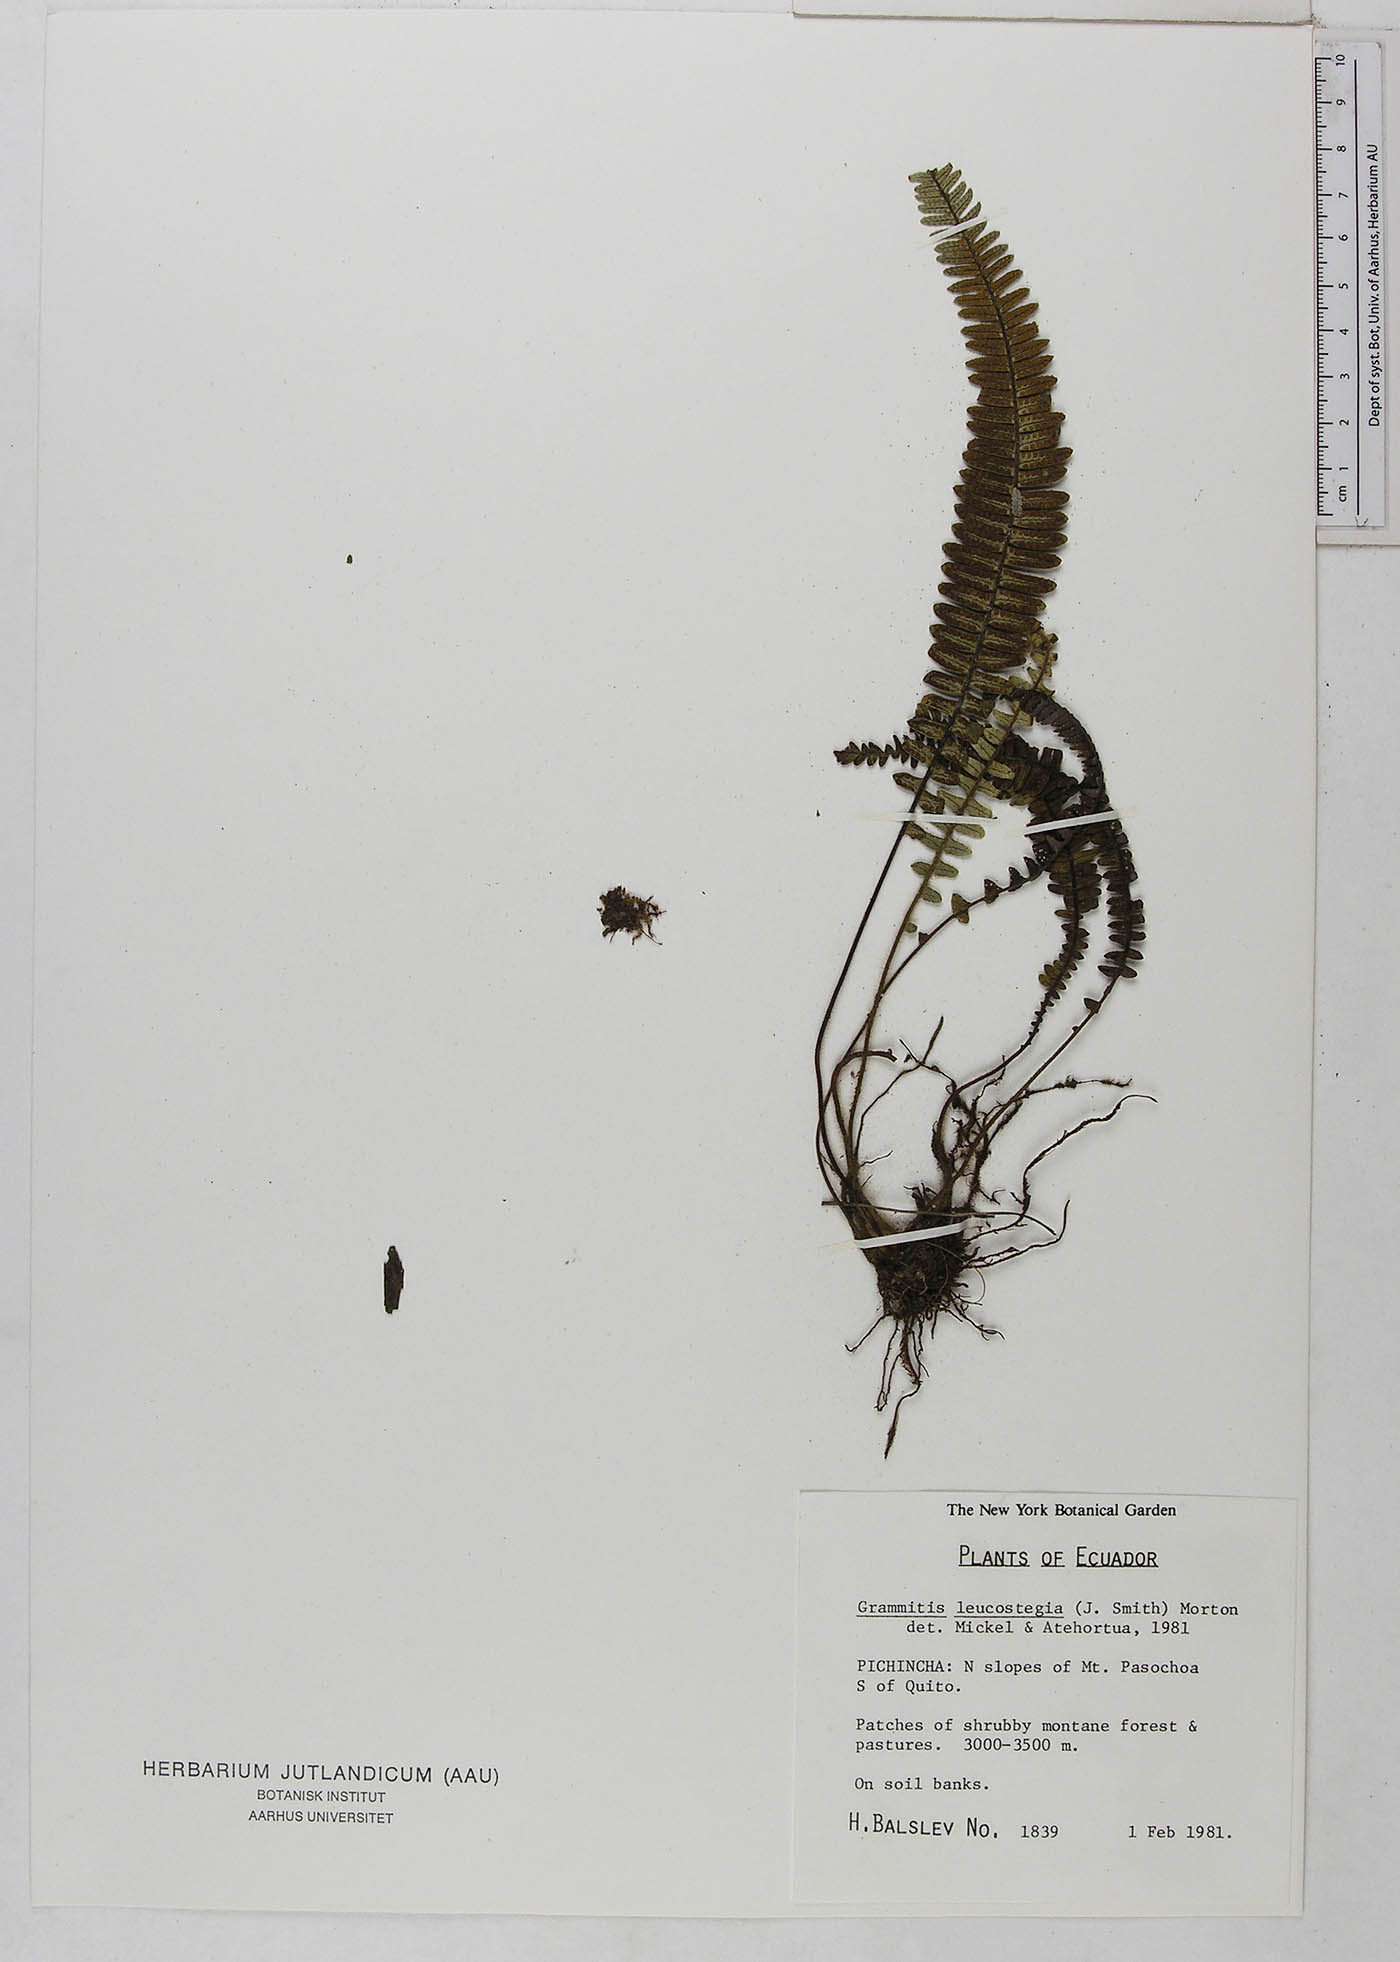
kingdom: Plantae
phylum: Tracheophyta
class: Polypodiopsida
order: Polypodiales
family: Polypodiaceae
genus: Mycopteris
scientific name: Mycopteris leucosticta
